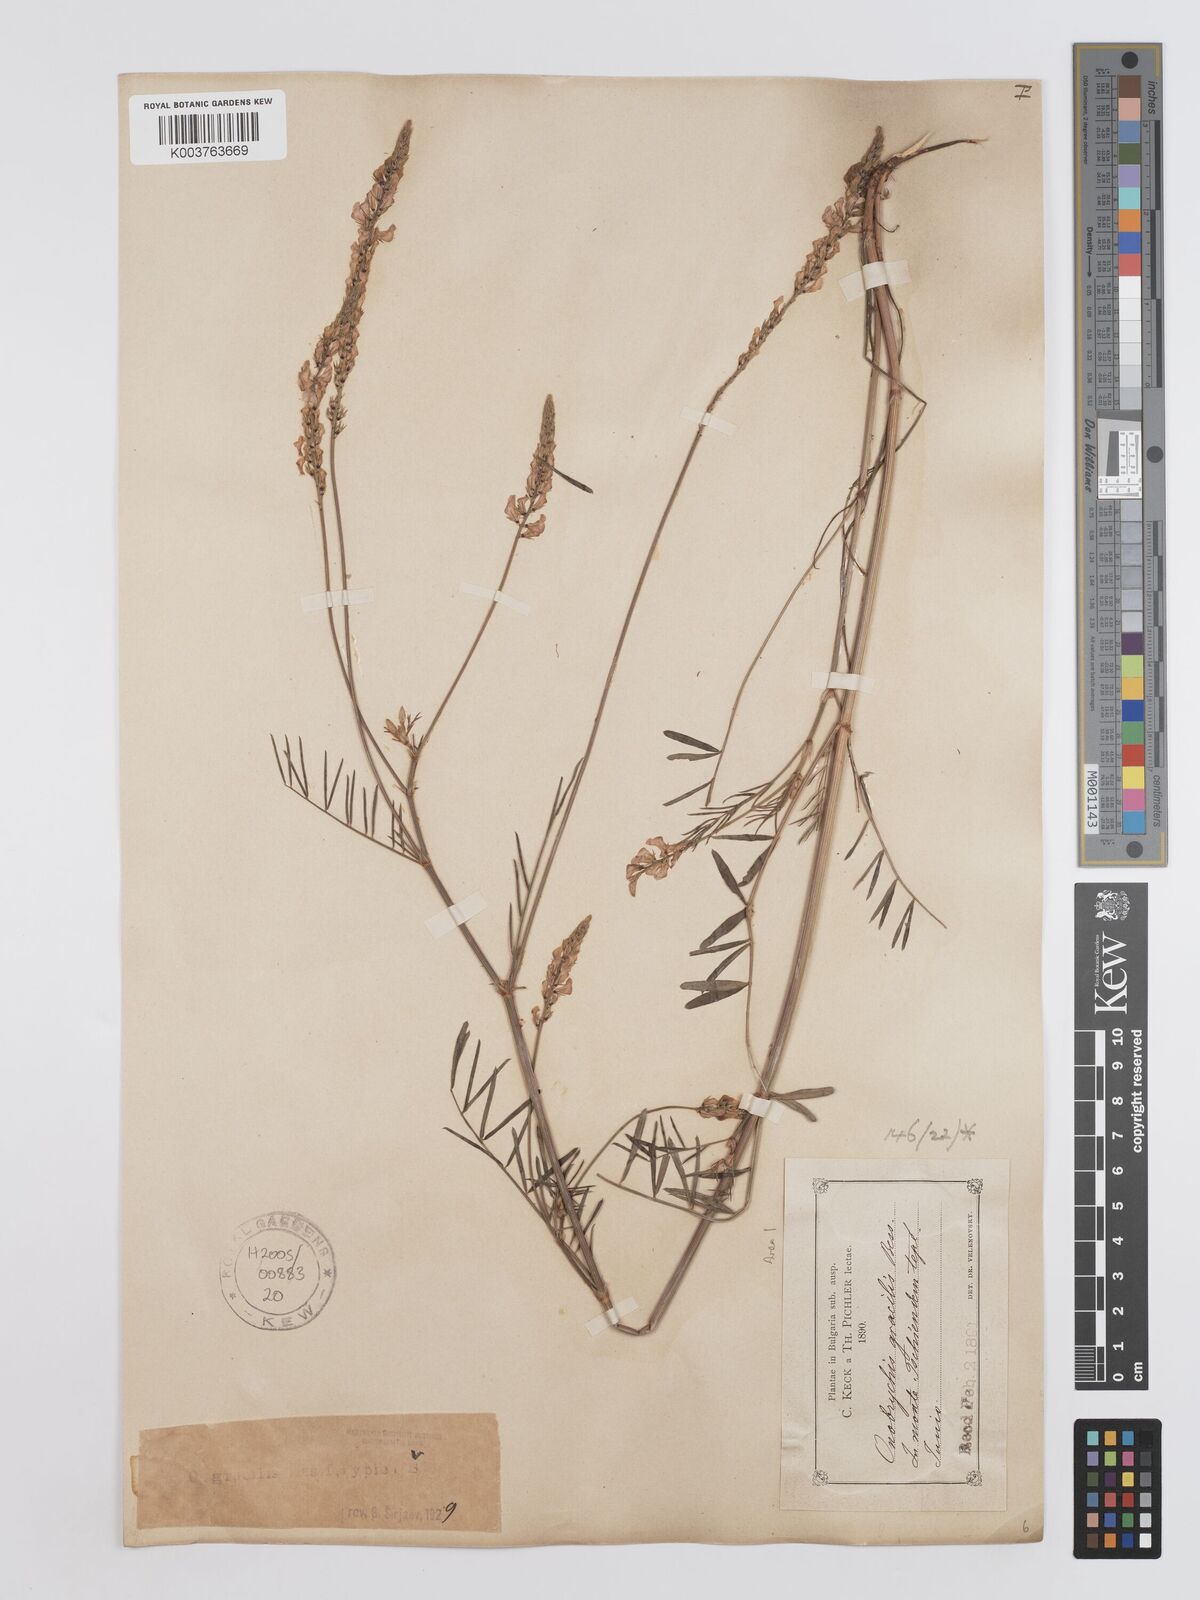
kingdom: Plantae
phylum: Tracheophyta
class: Magnoliopsida
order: Fabales
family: Fabaceae
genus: Onobrychis
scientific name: Onobrychis gracilis
